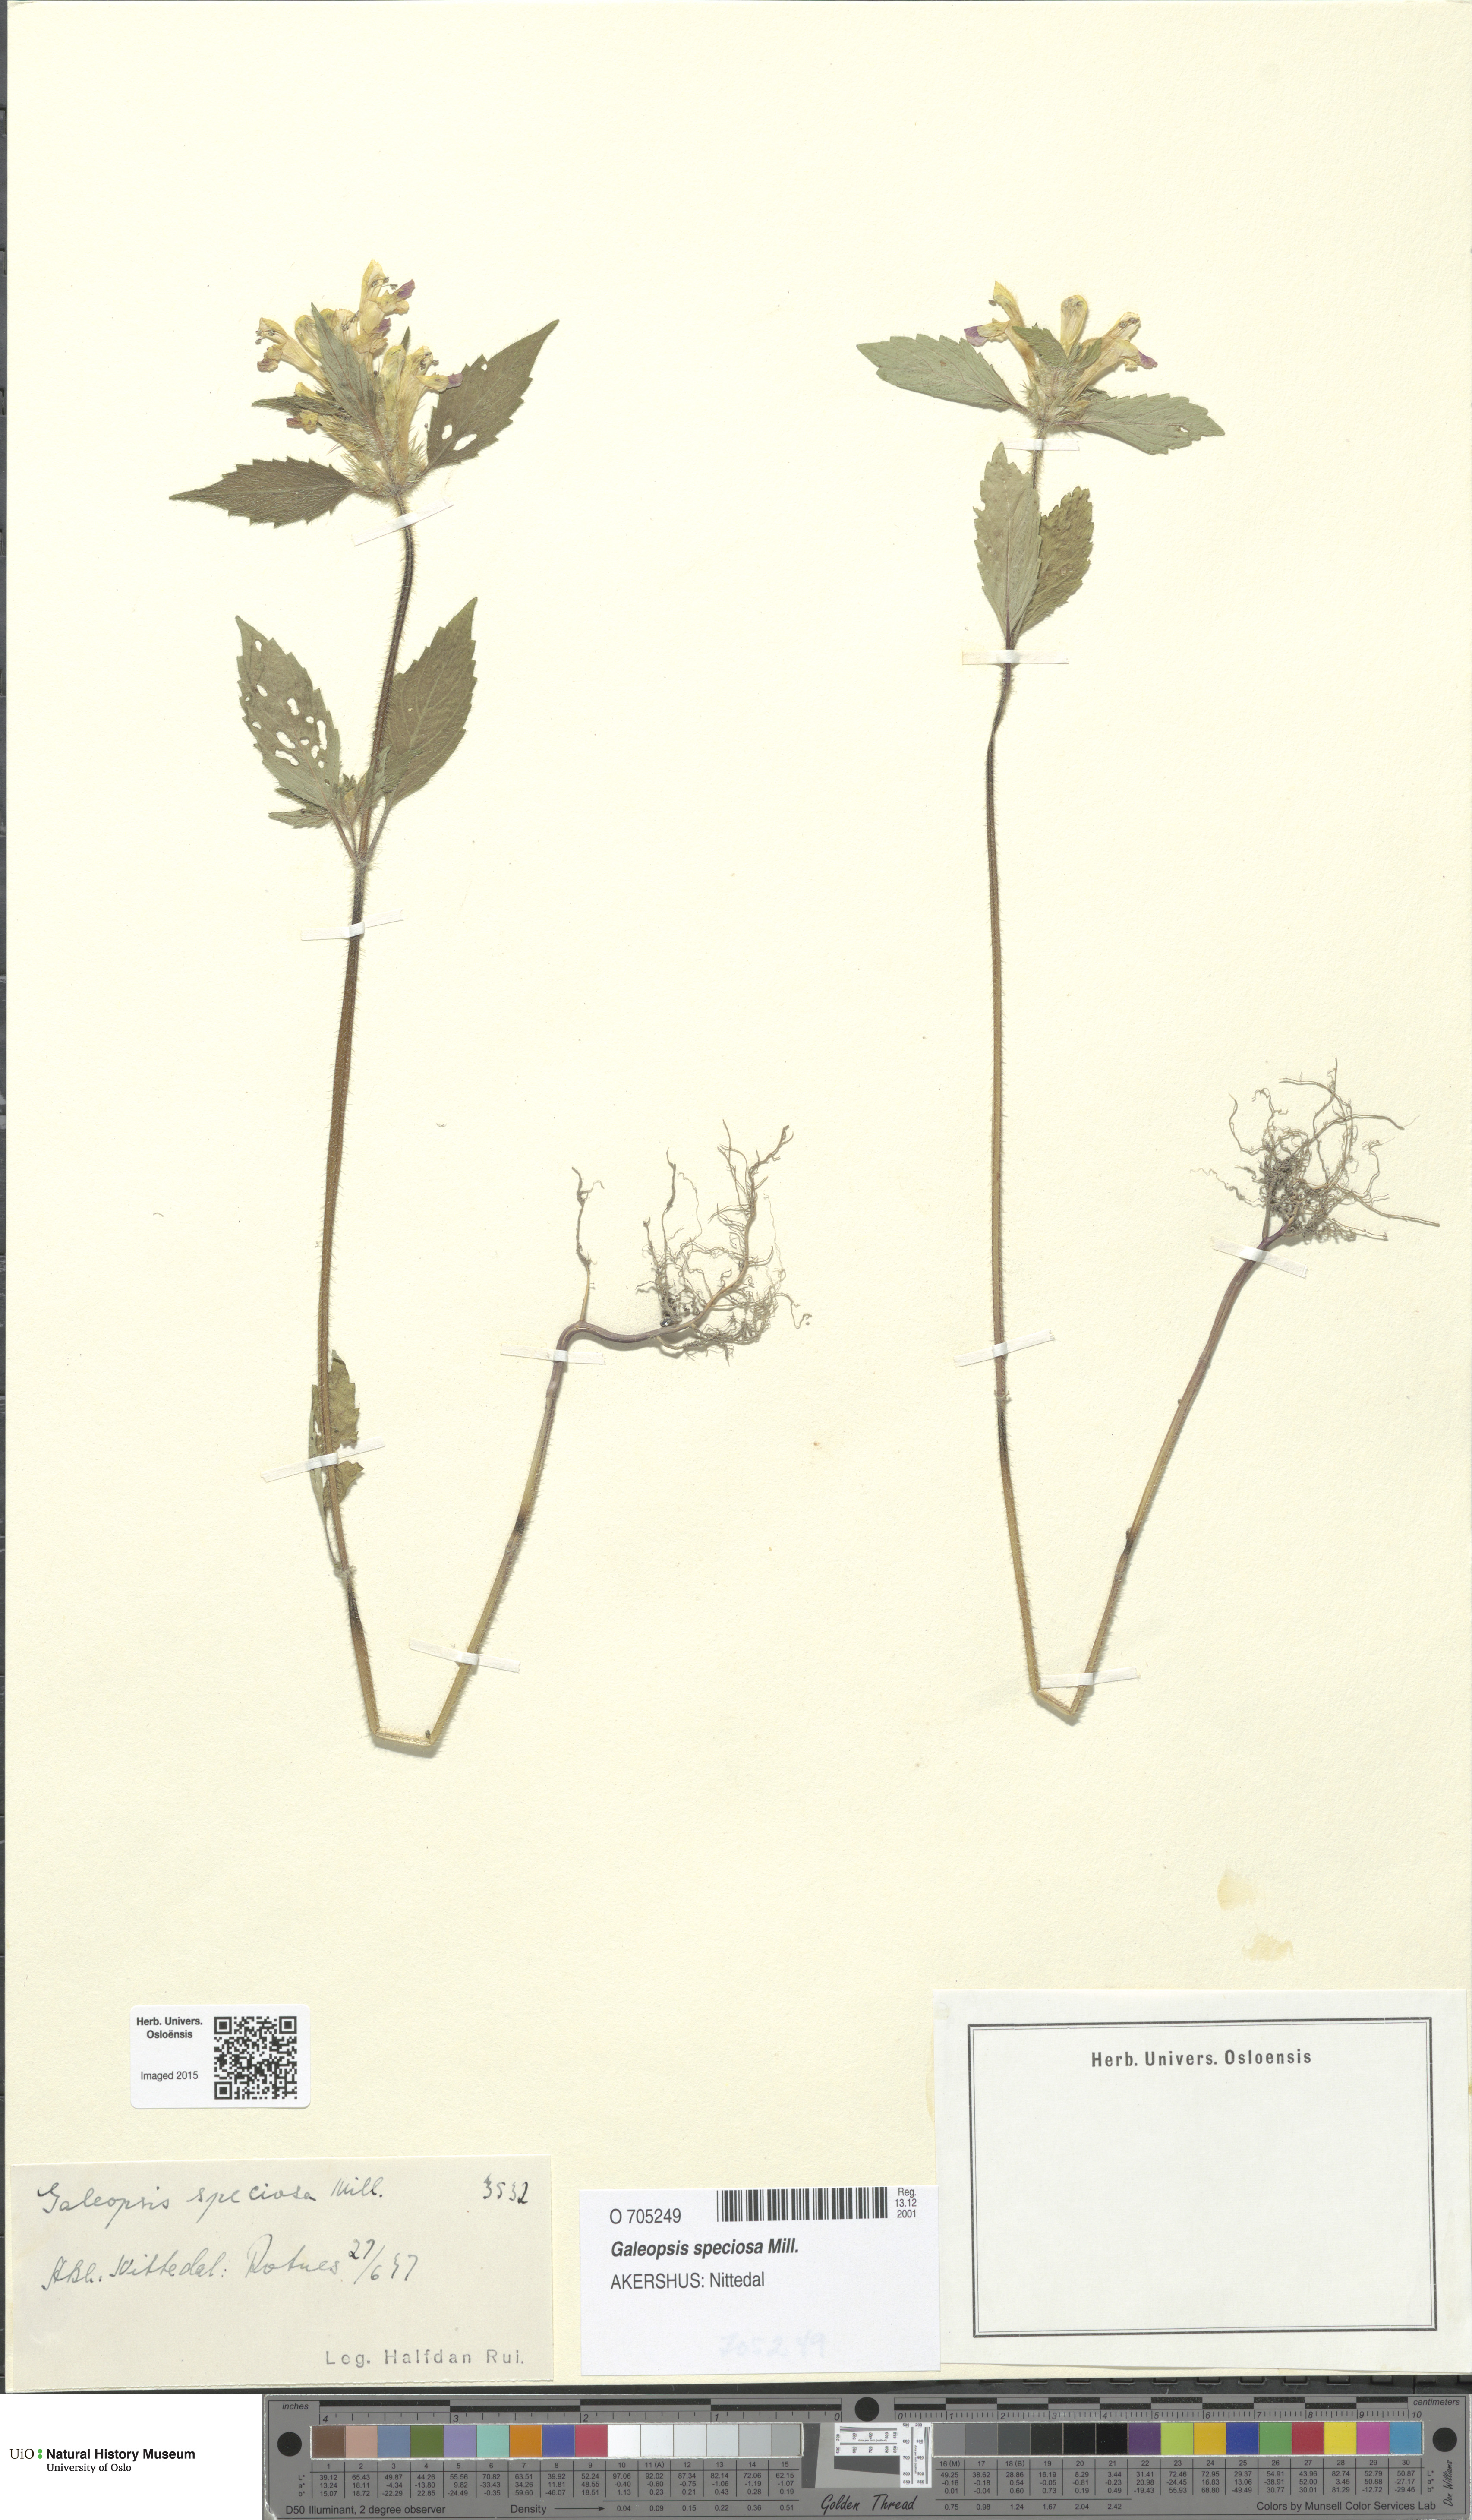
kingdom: Plantae
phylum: Tracheophyta
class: Magnoliopsida
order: Lamiales
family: Lamiaceae
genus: Galeopsis
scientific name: Galeopsis speciosa
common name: Large-flowered hemp-nettle
